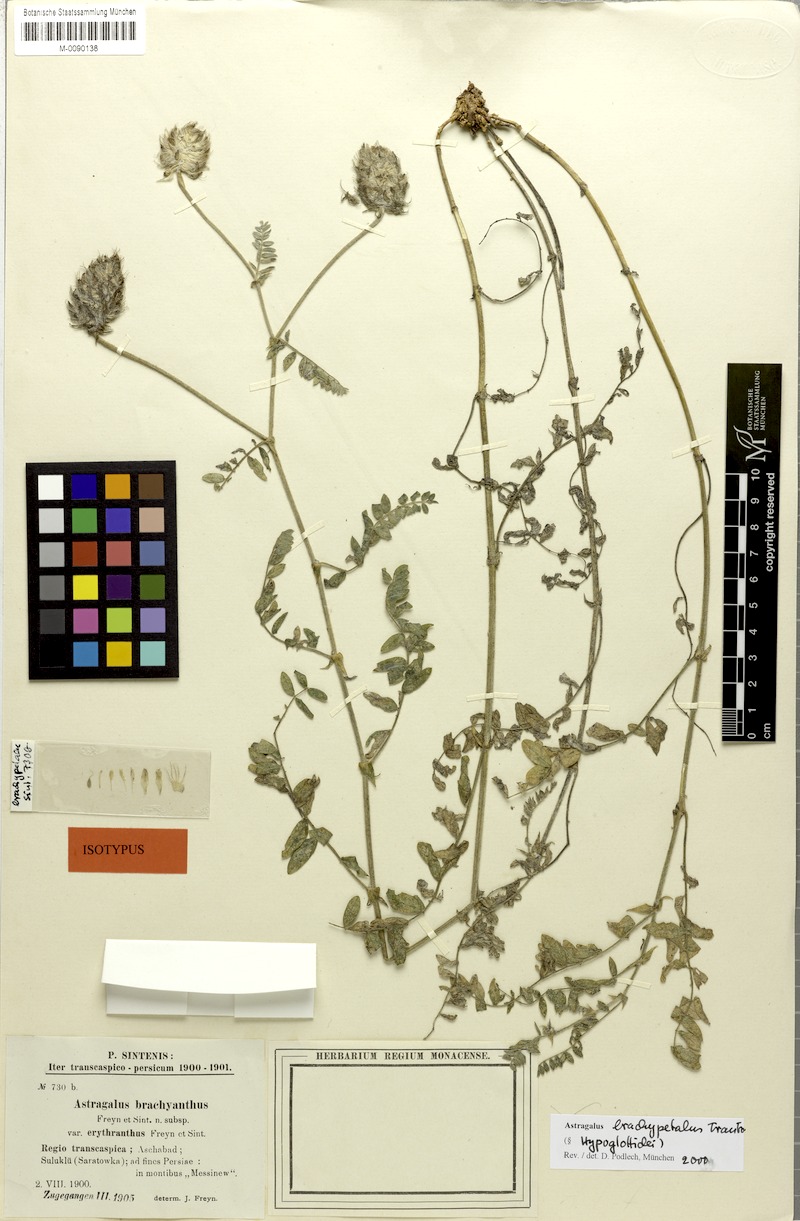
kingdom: Plantae
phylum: Tracheophyta
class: Magnoliopsida
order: Fabales
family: Fabaceae
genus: Astragalus
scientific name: Astragalus brachypetalus
